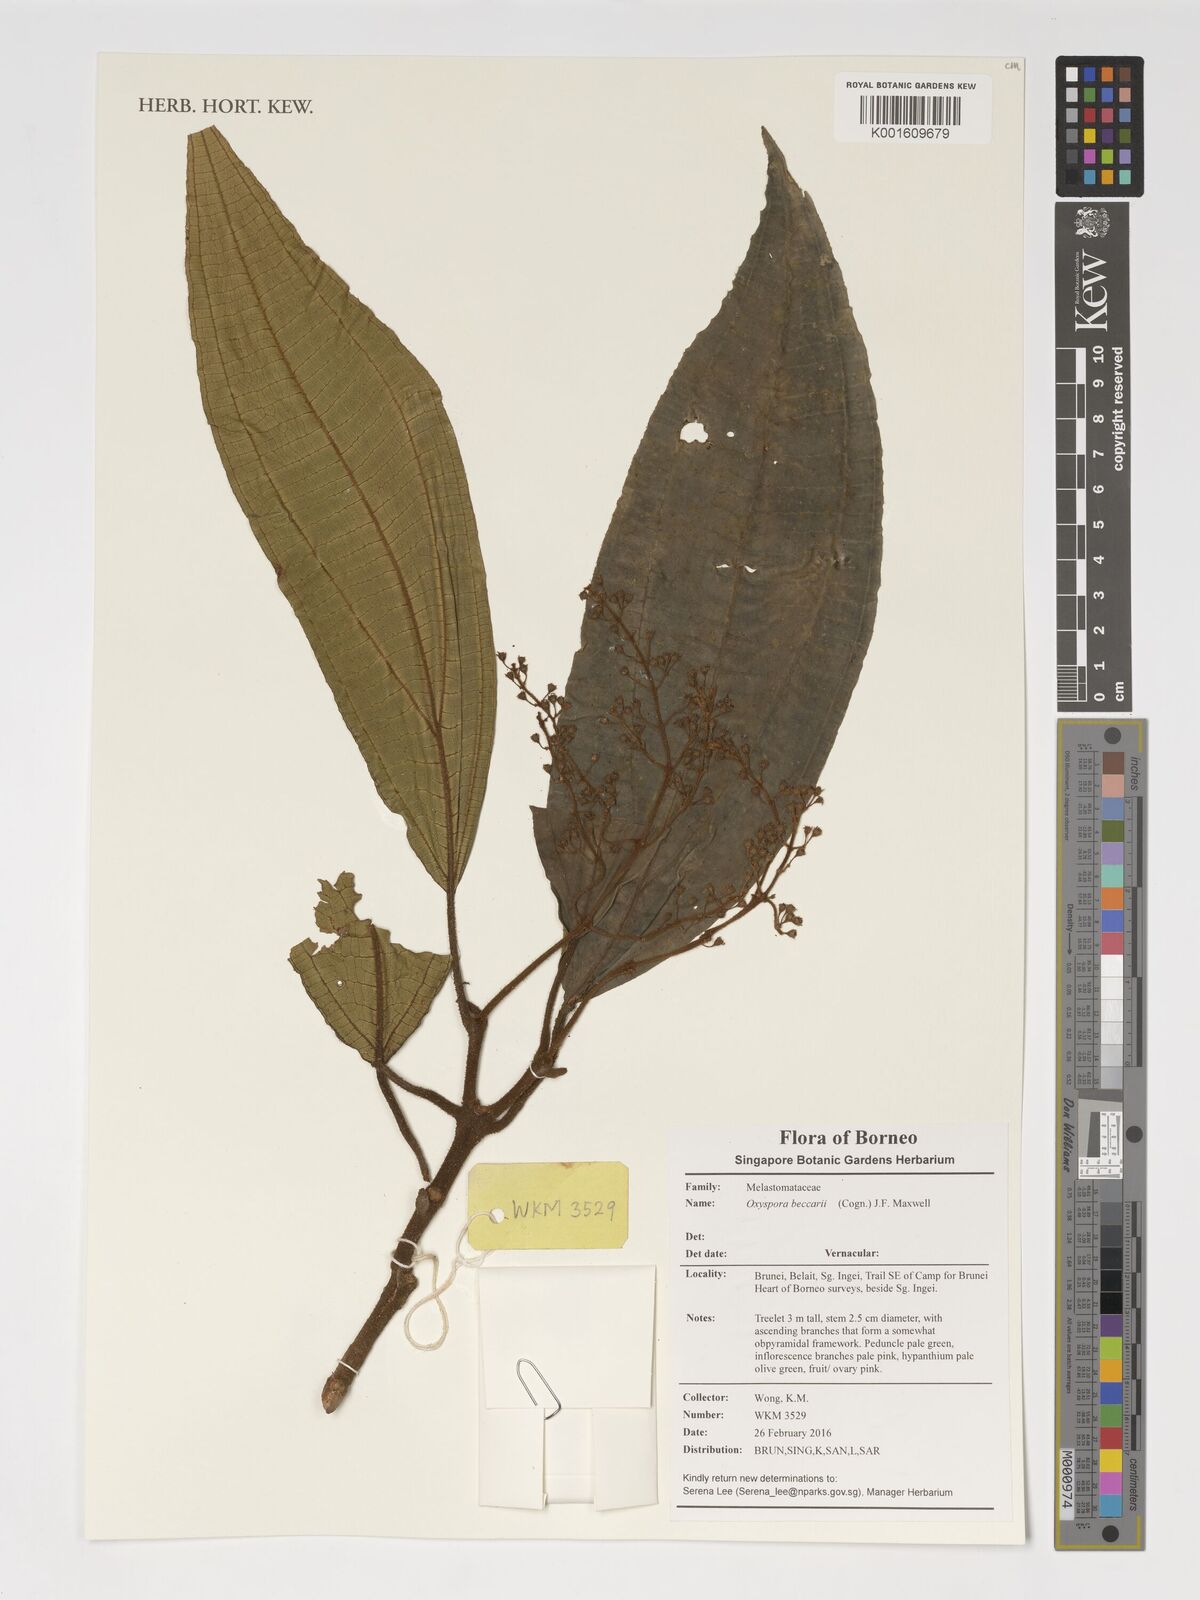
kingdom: Plantae
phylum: Tracheophyta
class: Magnoliopsida
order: Myrtales
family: Melastomataceae
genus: Oxyspora
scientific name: Oxyspora beccarii
